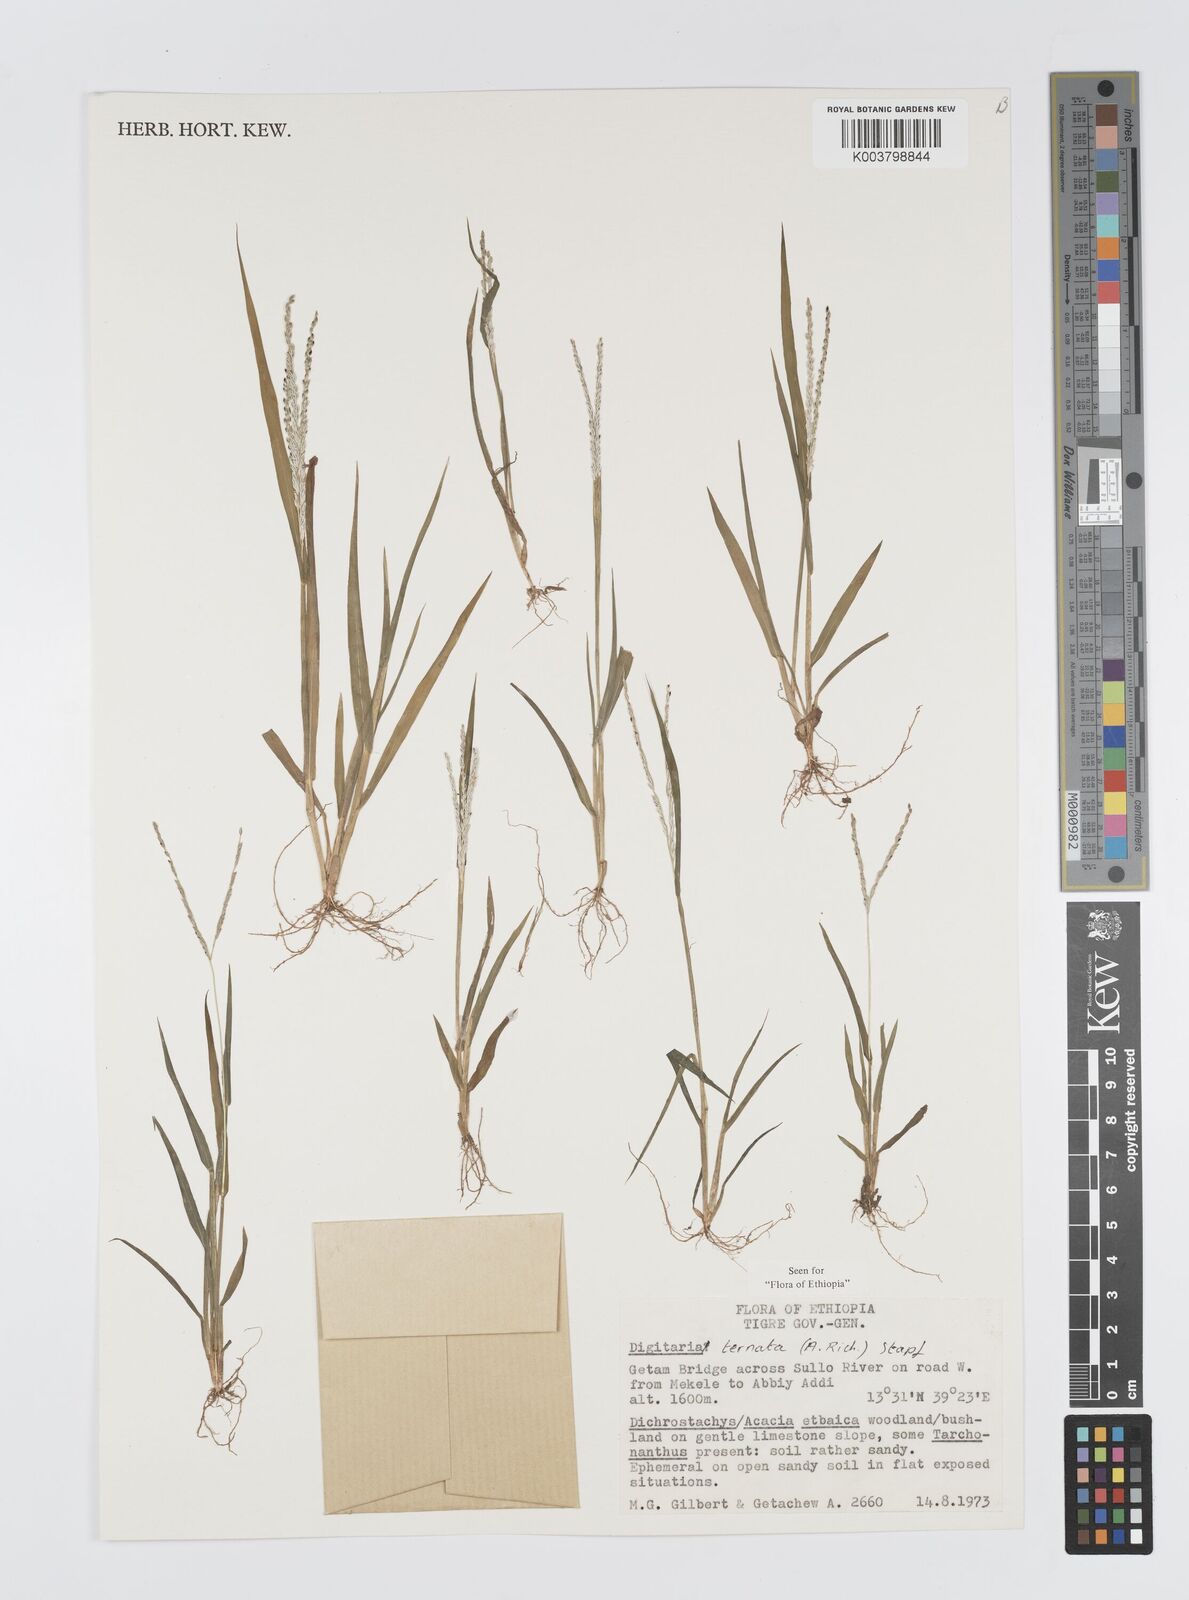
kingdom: Plantae
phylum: Tracheophyta
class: Liliopsida
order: Poales
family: Poaceae
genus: Digitaria
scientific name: Digitaria ternata
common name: Blackseed crabgrass
